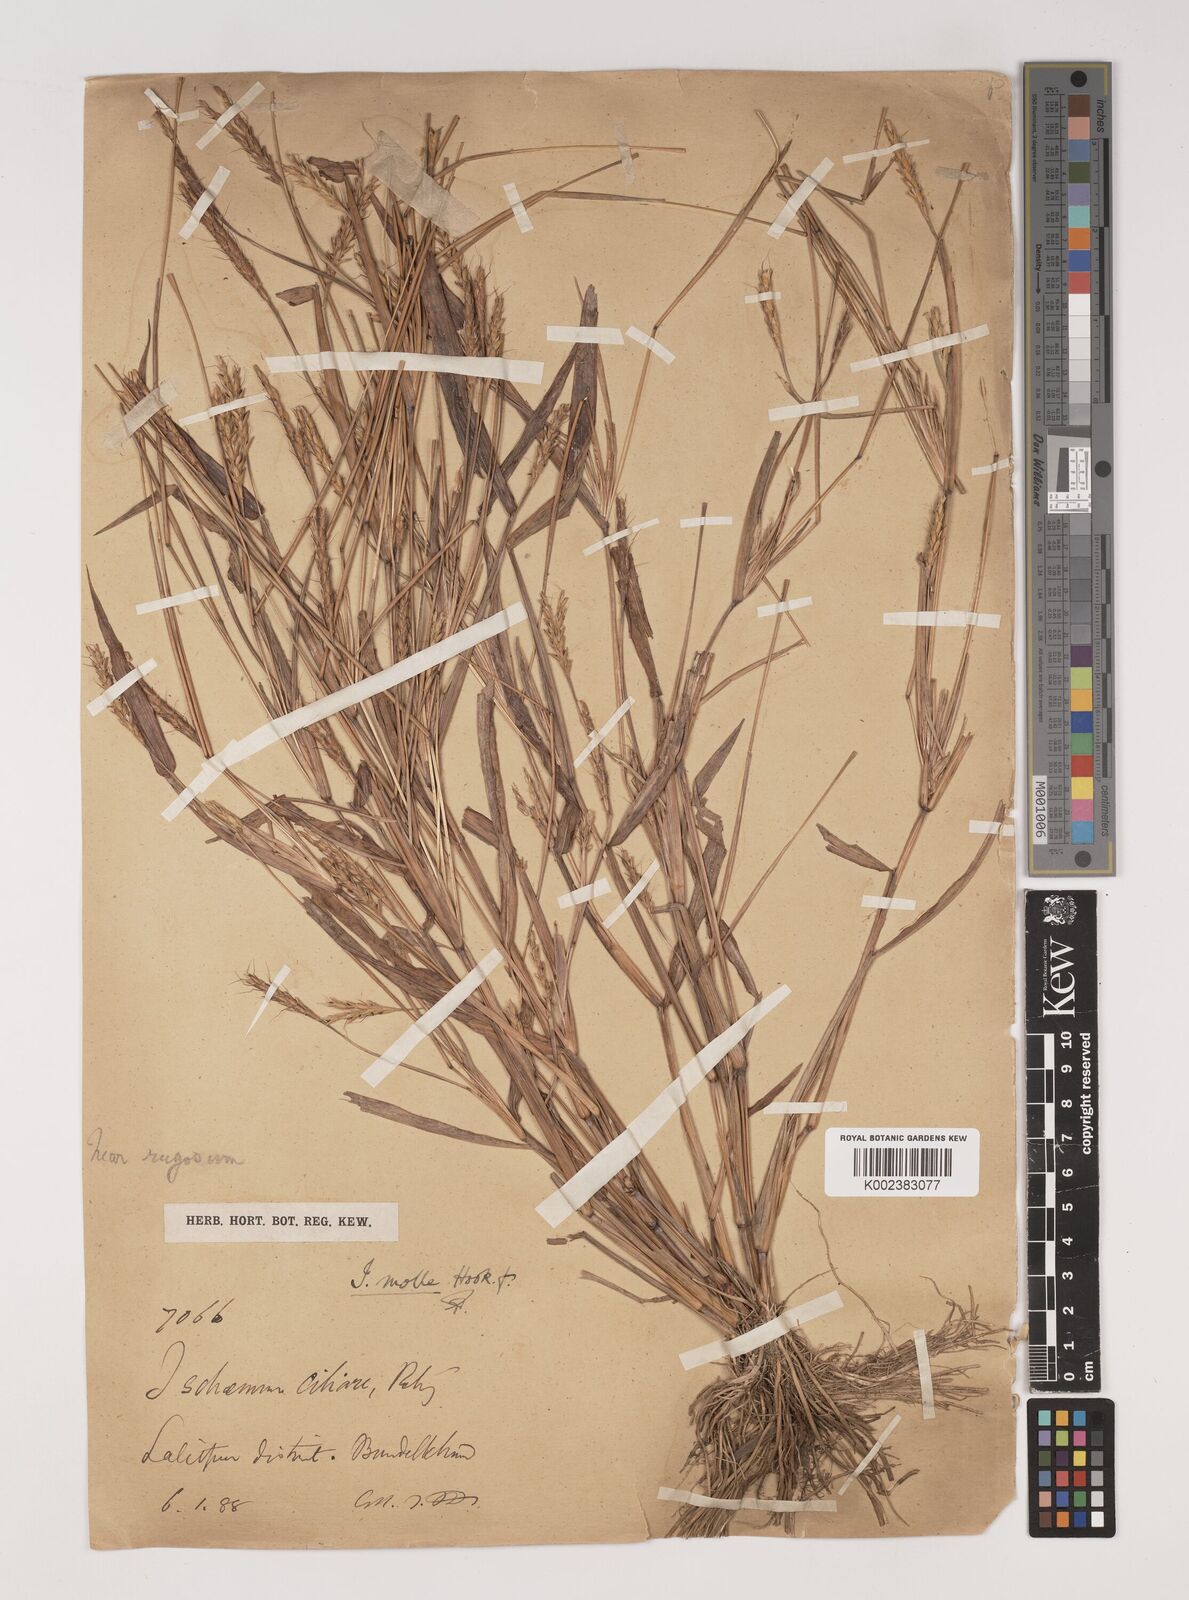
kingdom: Plantae
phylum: Tracheophyta
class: Liliopsida
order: Poales
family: Poaceae
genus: Ischaemum
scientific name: Ischaemum molle
